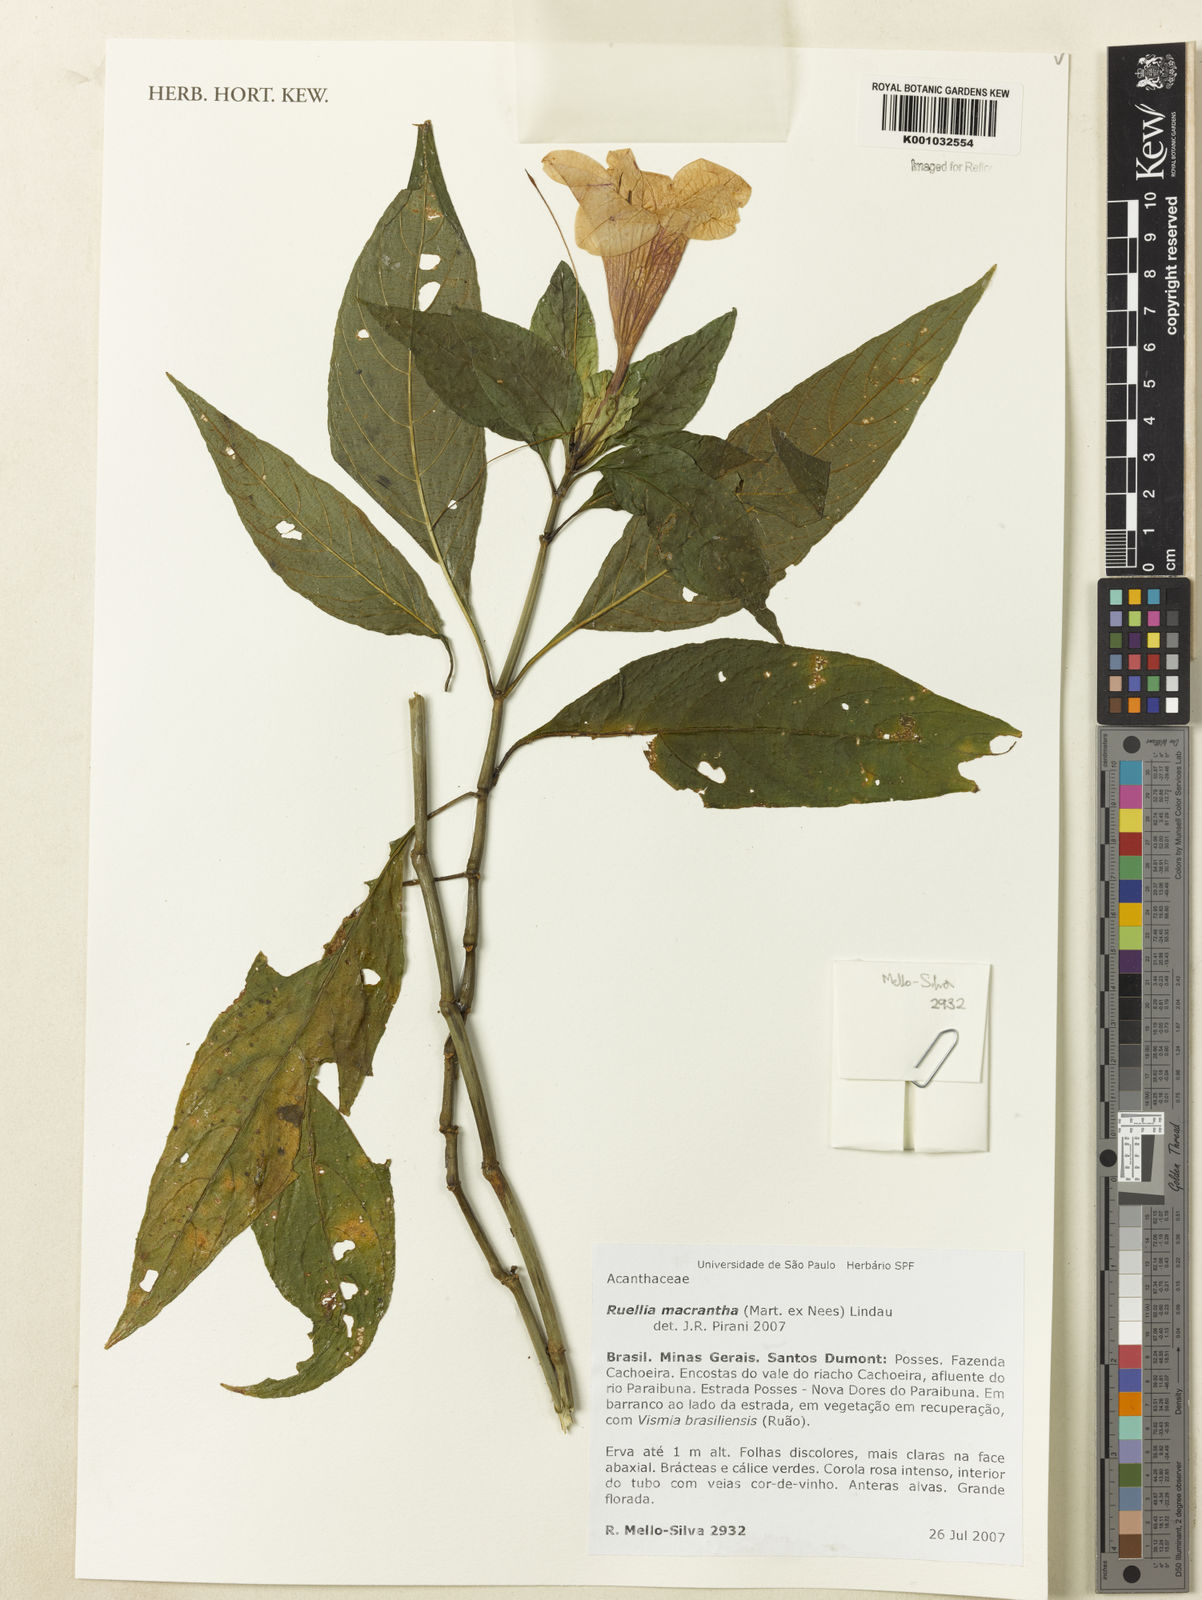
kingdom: Plantae
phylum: Tracheophyta
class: Magnoliopsida
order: Lamiales
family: Acanthaceae
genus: Ruellia
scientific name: Ruellia
